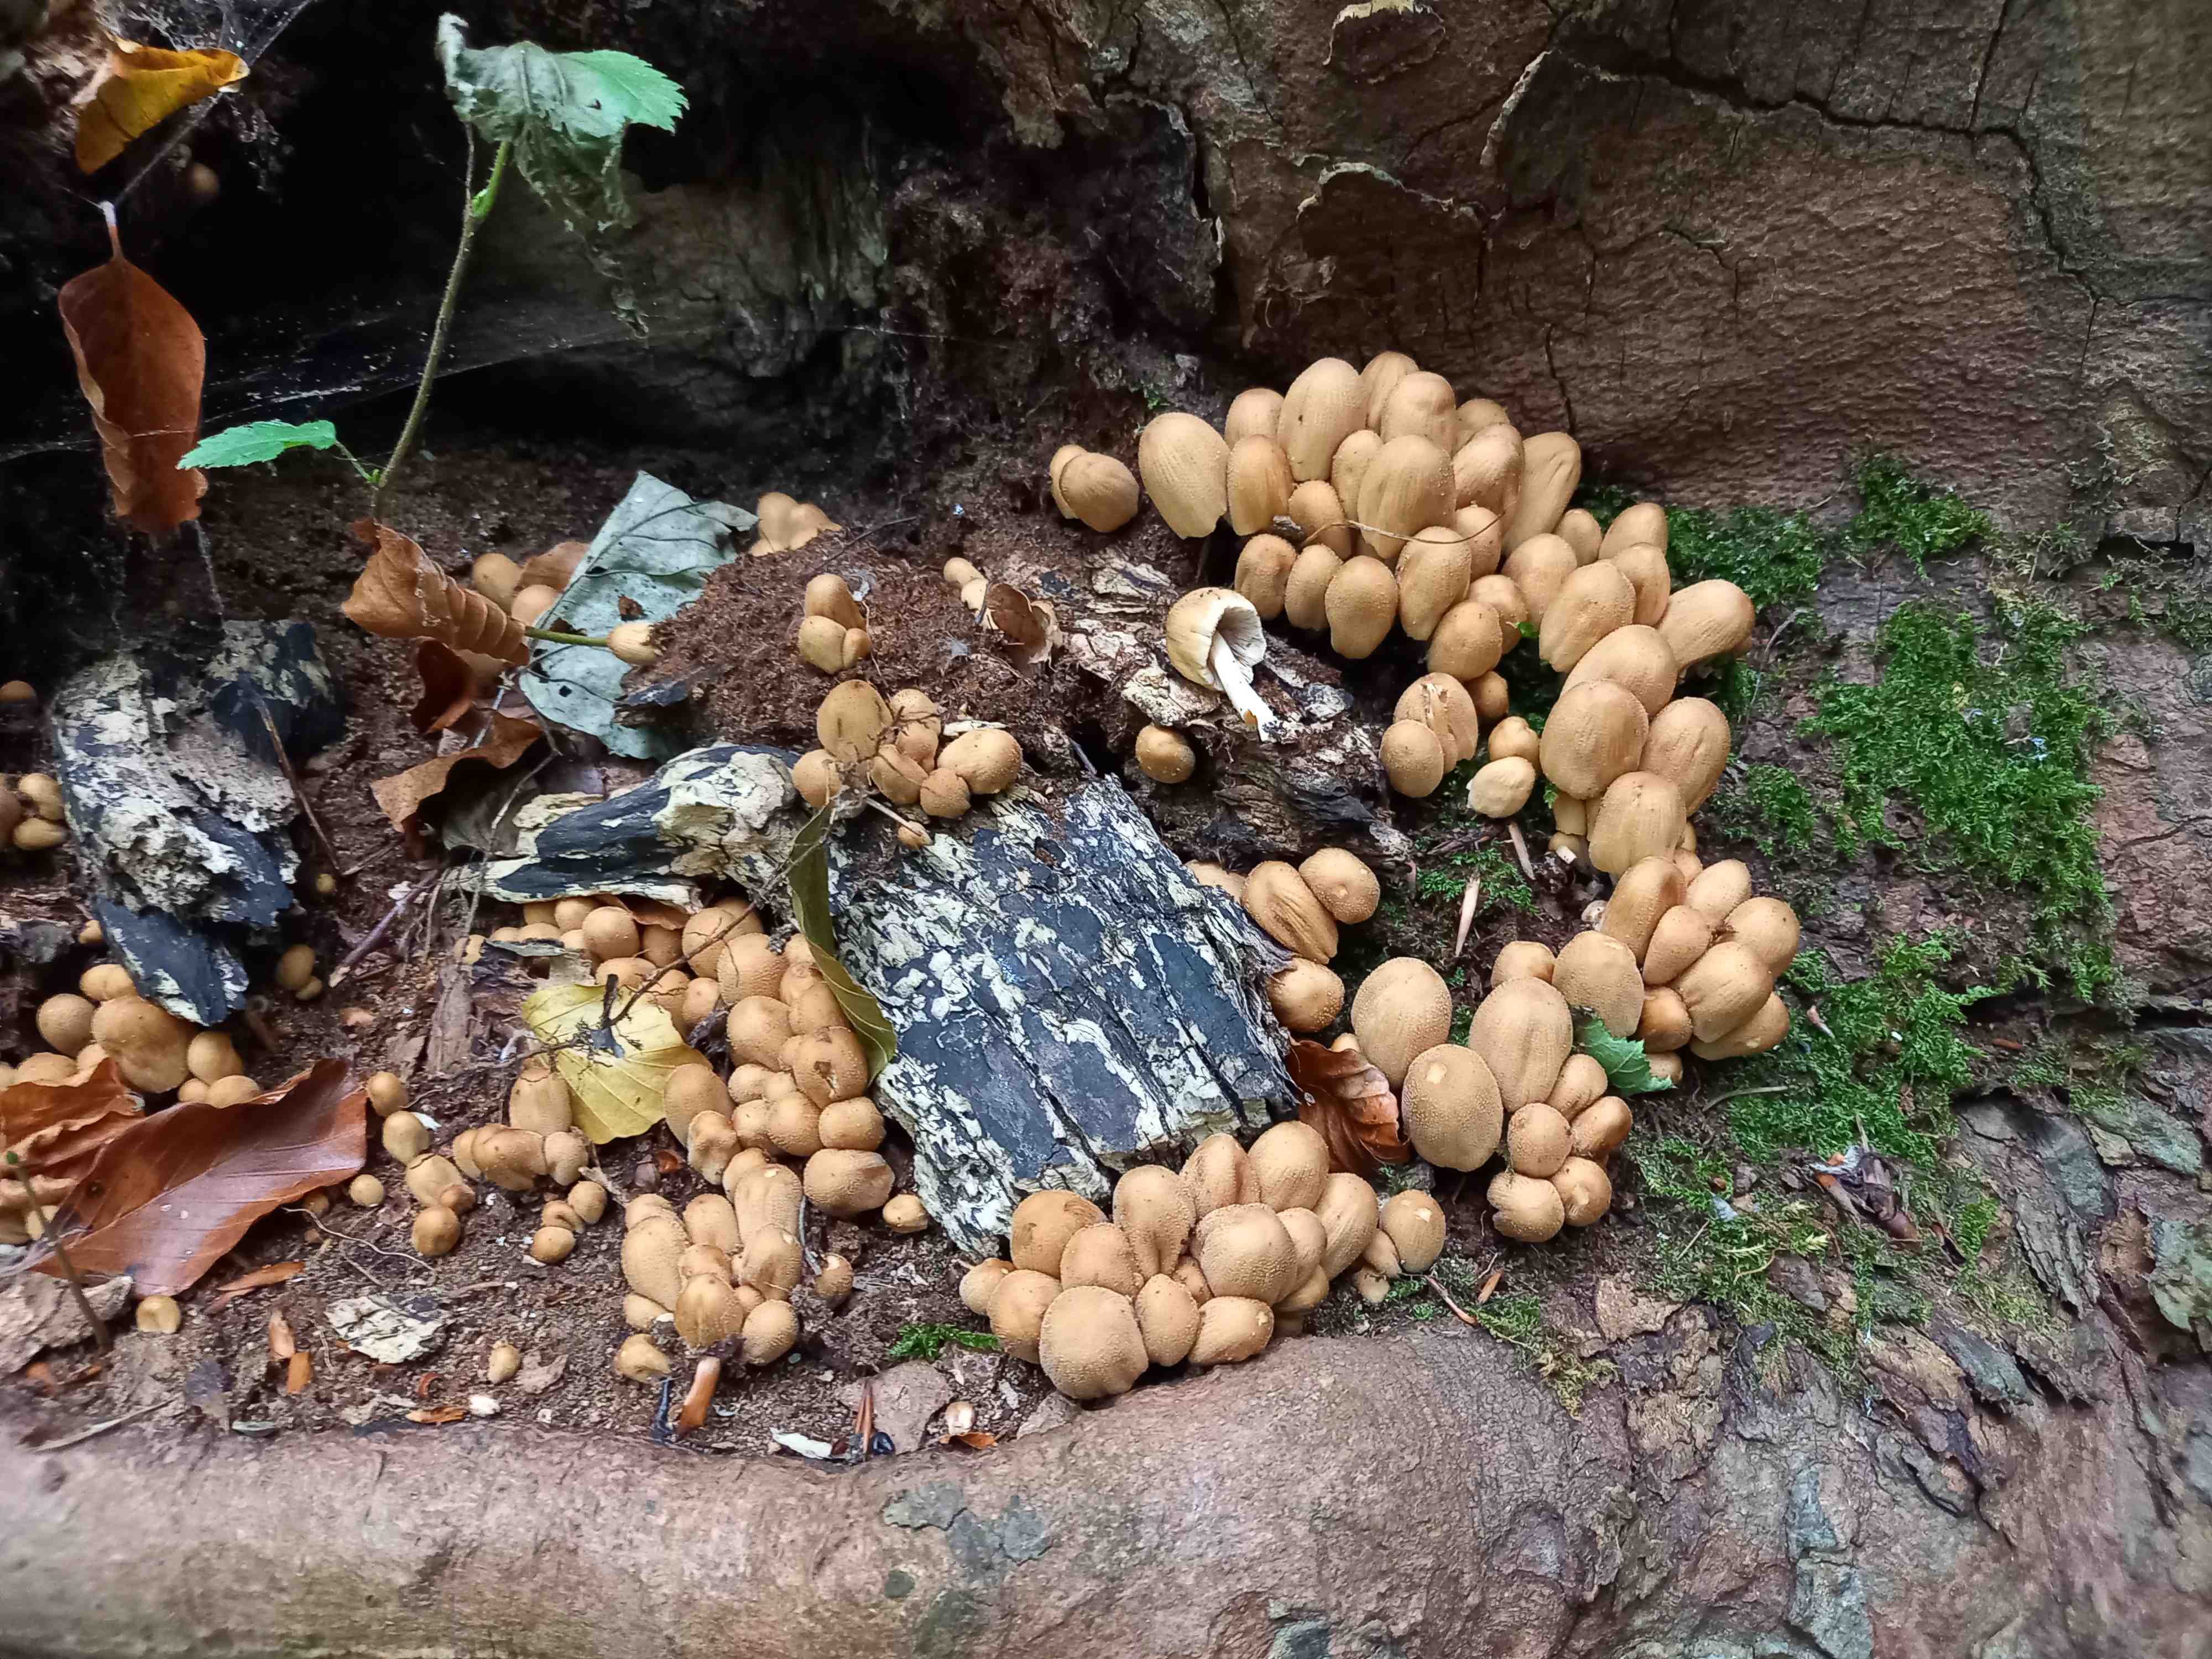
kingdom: Fungi
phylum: Basidiomycota
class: Agaricomycetes
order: Agaricales
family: Psathyrellaceae
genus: Coprinellus
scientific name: Coprinellus micaceus
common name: glimmer-blækhat
